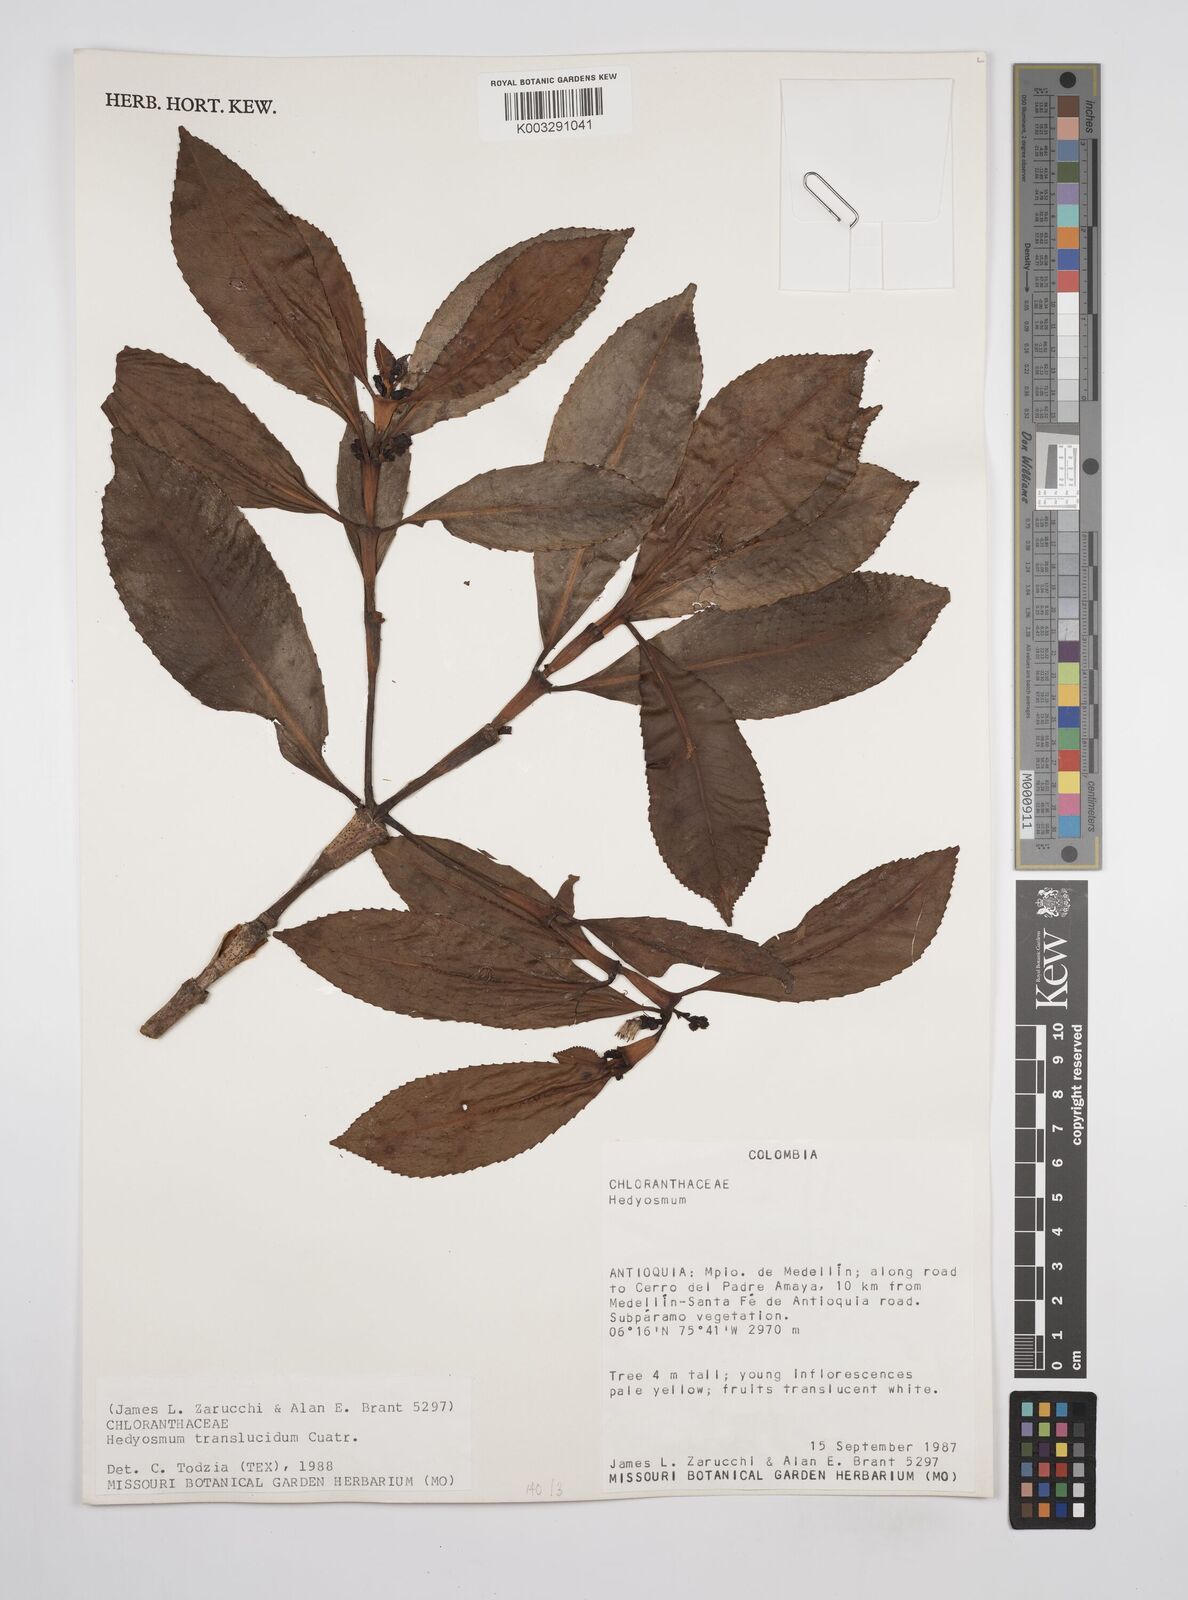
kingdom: Plantae
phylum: Tracheophyta
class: Magnoliopsida
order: Chloranthales
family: Chloranthaceae
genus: Hedyosmum
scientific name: Hedyosmum translucidum
